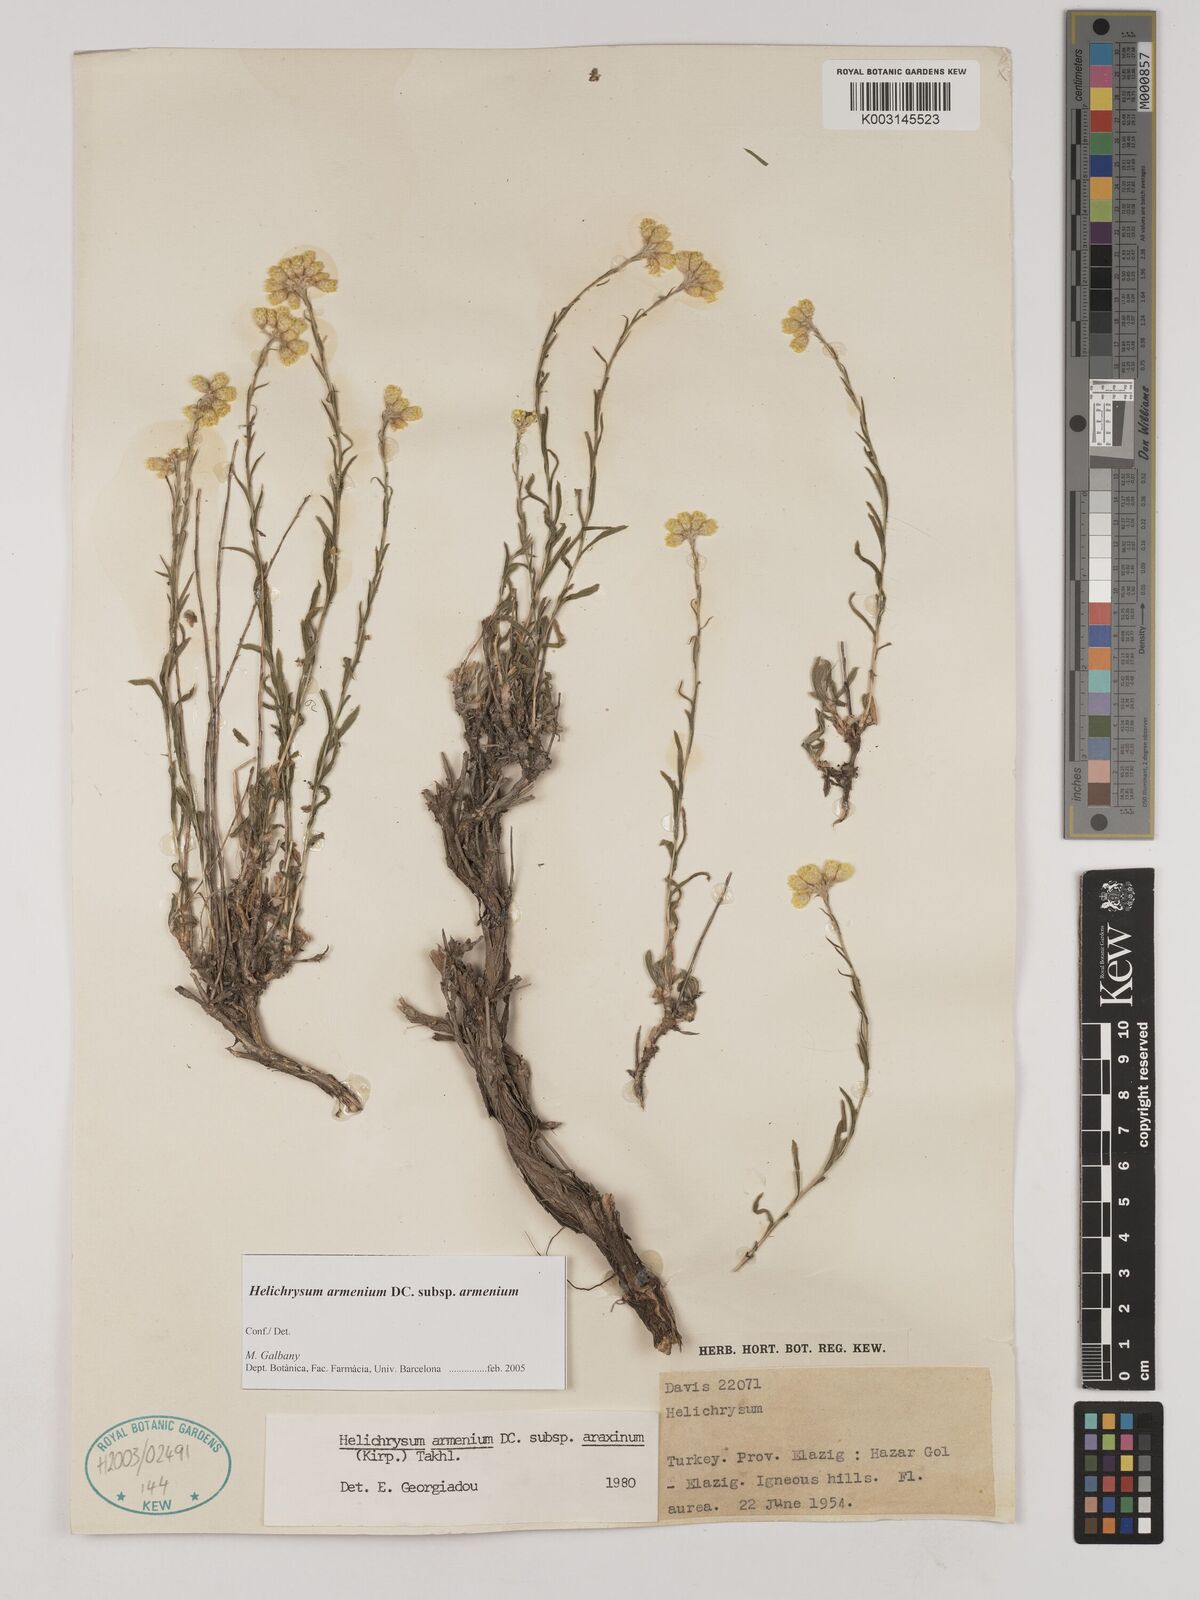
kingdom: Plantae
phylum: Tracheophyta
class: Magnoliopsida
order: Asterales
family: Asteraceae
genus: Helichrysum
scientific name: Helichrysum armenium
